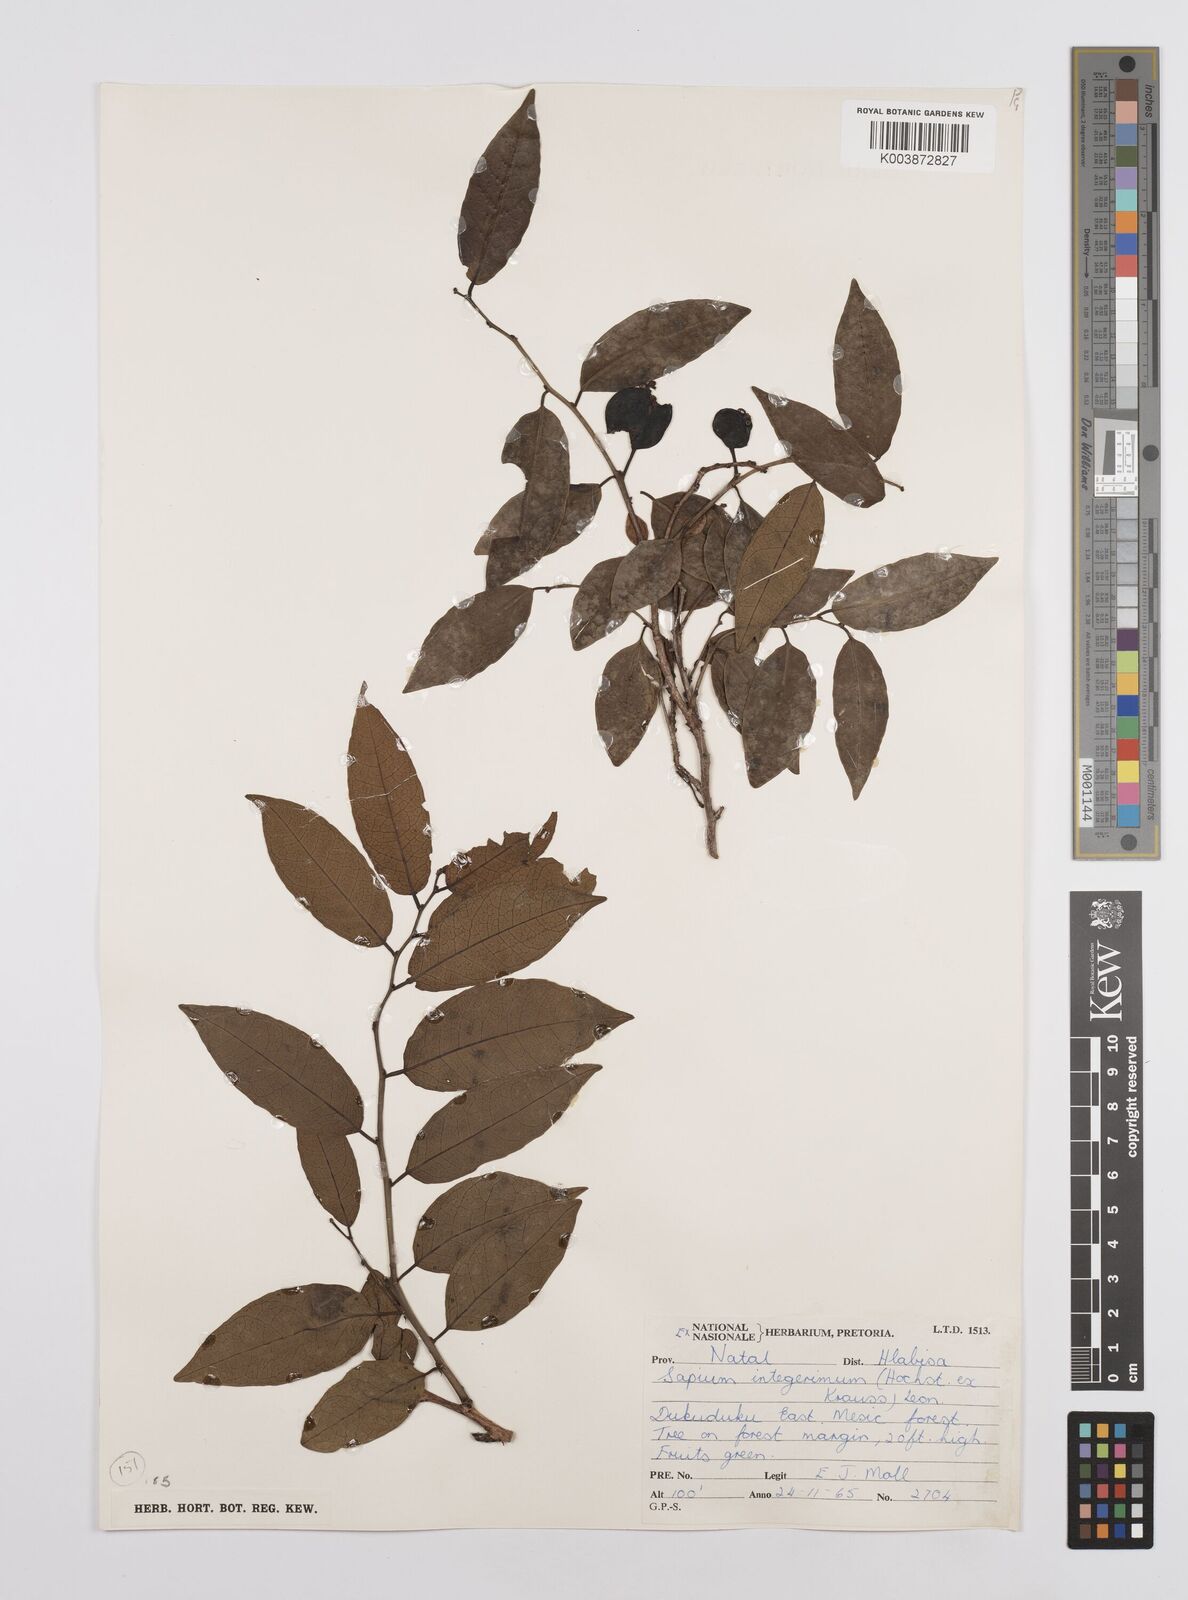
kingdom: Plantae
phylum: Tracheophyta
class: Magnoliopsida
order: Malpighiales
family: Euphorbiaceae
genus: Sclerocroton
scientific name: Sclerocroton integerrimus
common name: Duiker berry
